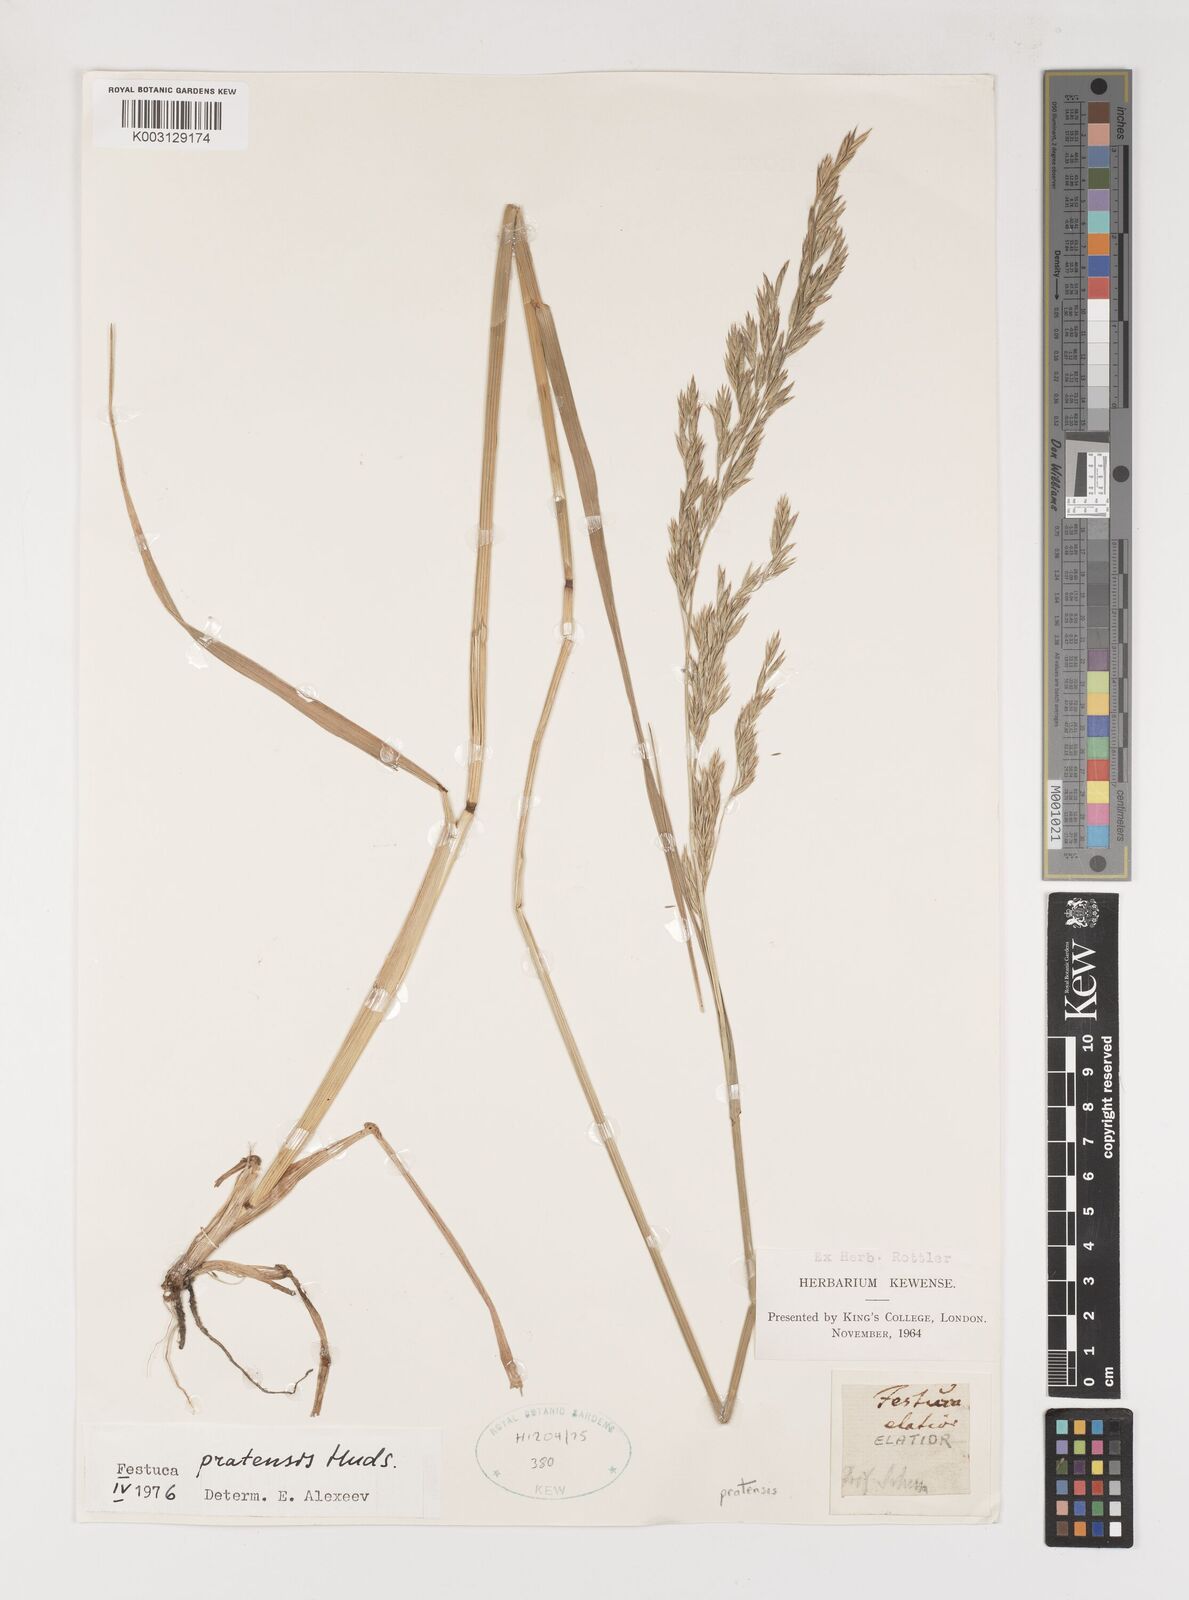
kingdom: Plantae
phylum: Tracheophyta
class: Liliopsida
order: Poales
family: Poaceae
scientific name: Poaceae
